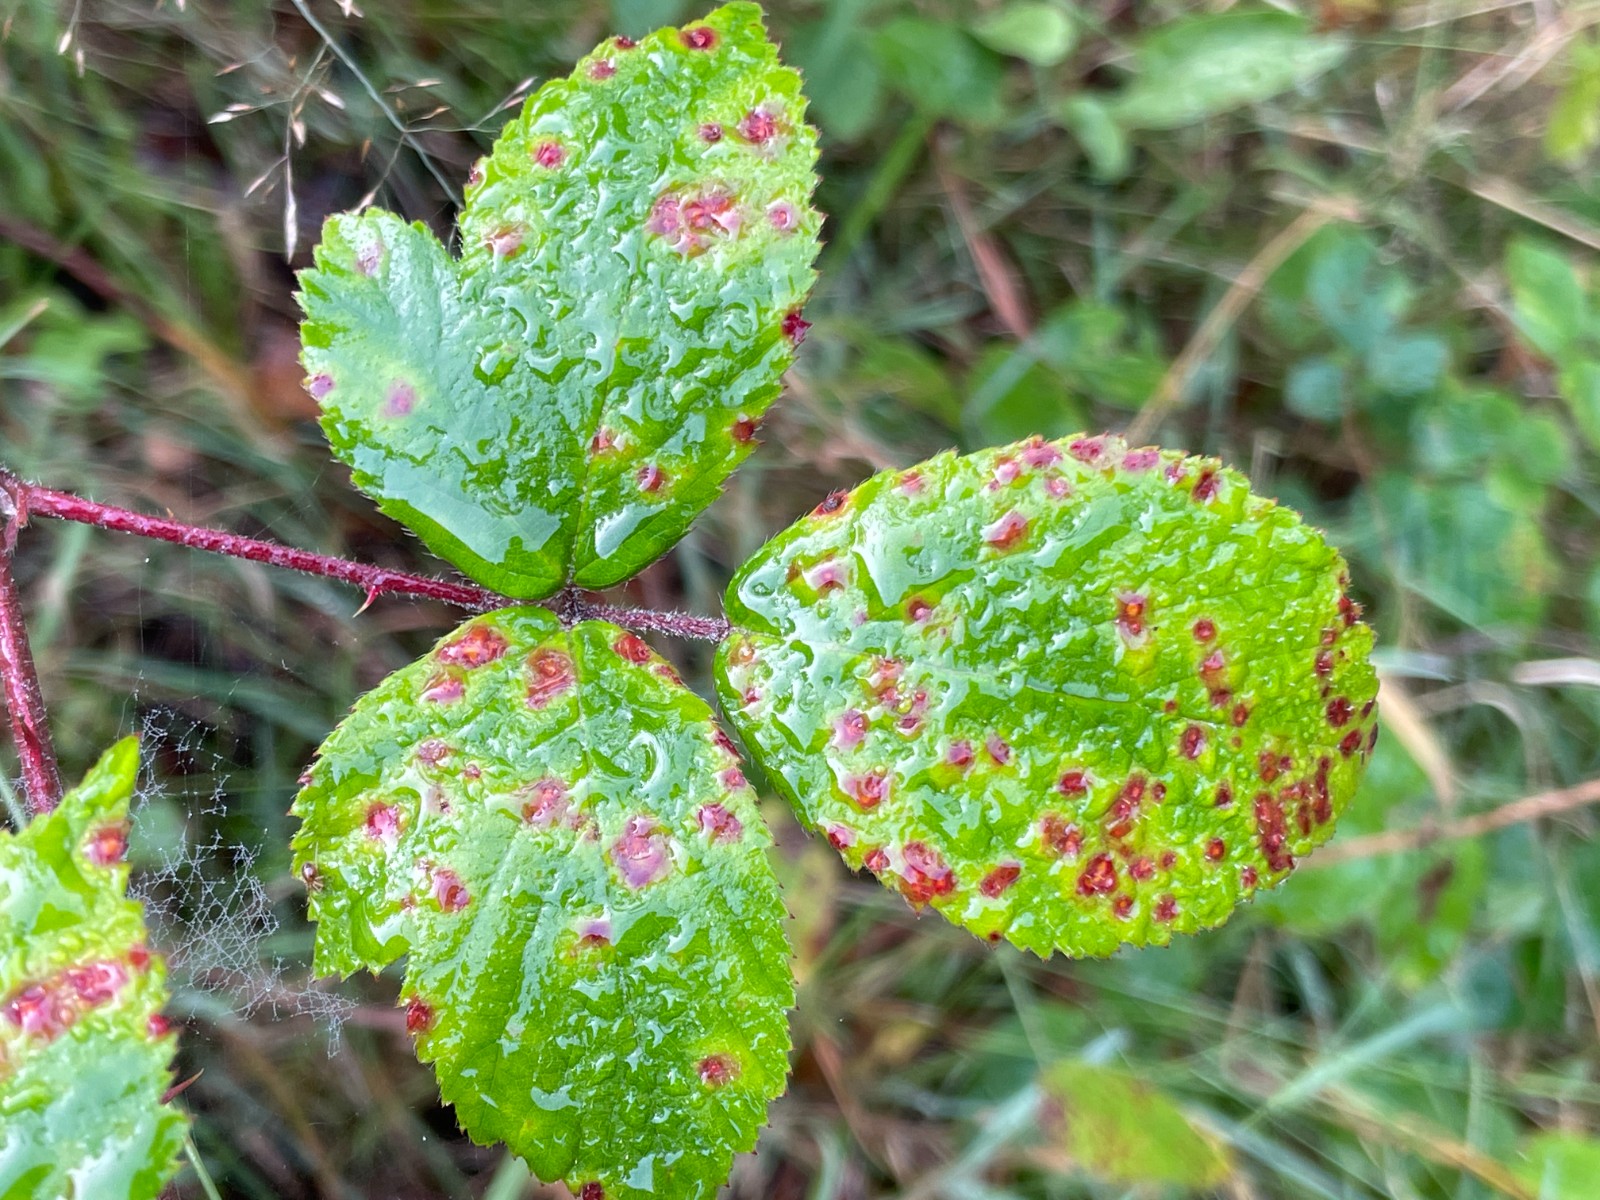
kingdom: Fungi
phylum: Basidiomycota
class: Pucciniomycetes
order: Pucciniales
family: Phragmidiaceae
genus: Phragmidium
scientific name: Phragmidium violaceum
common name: violet flercellerust
